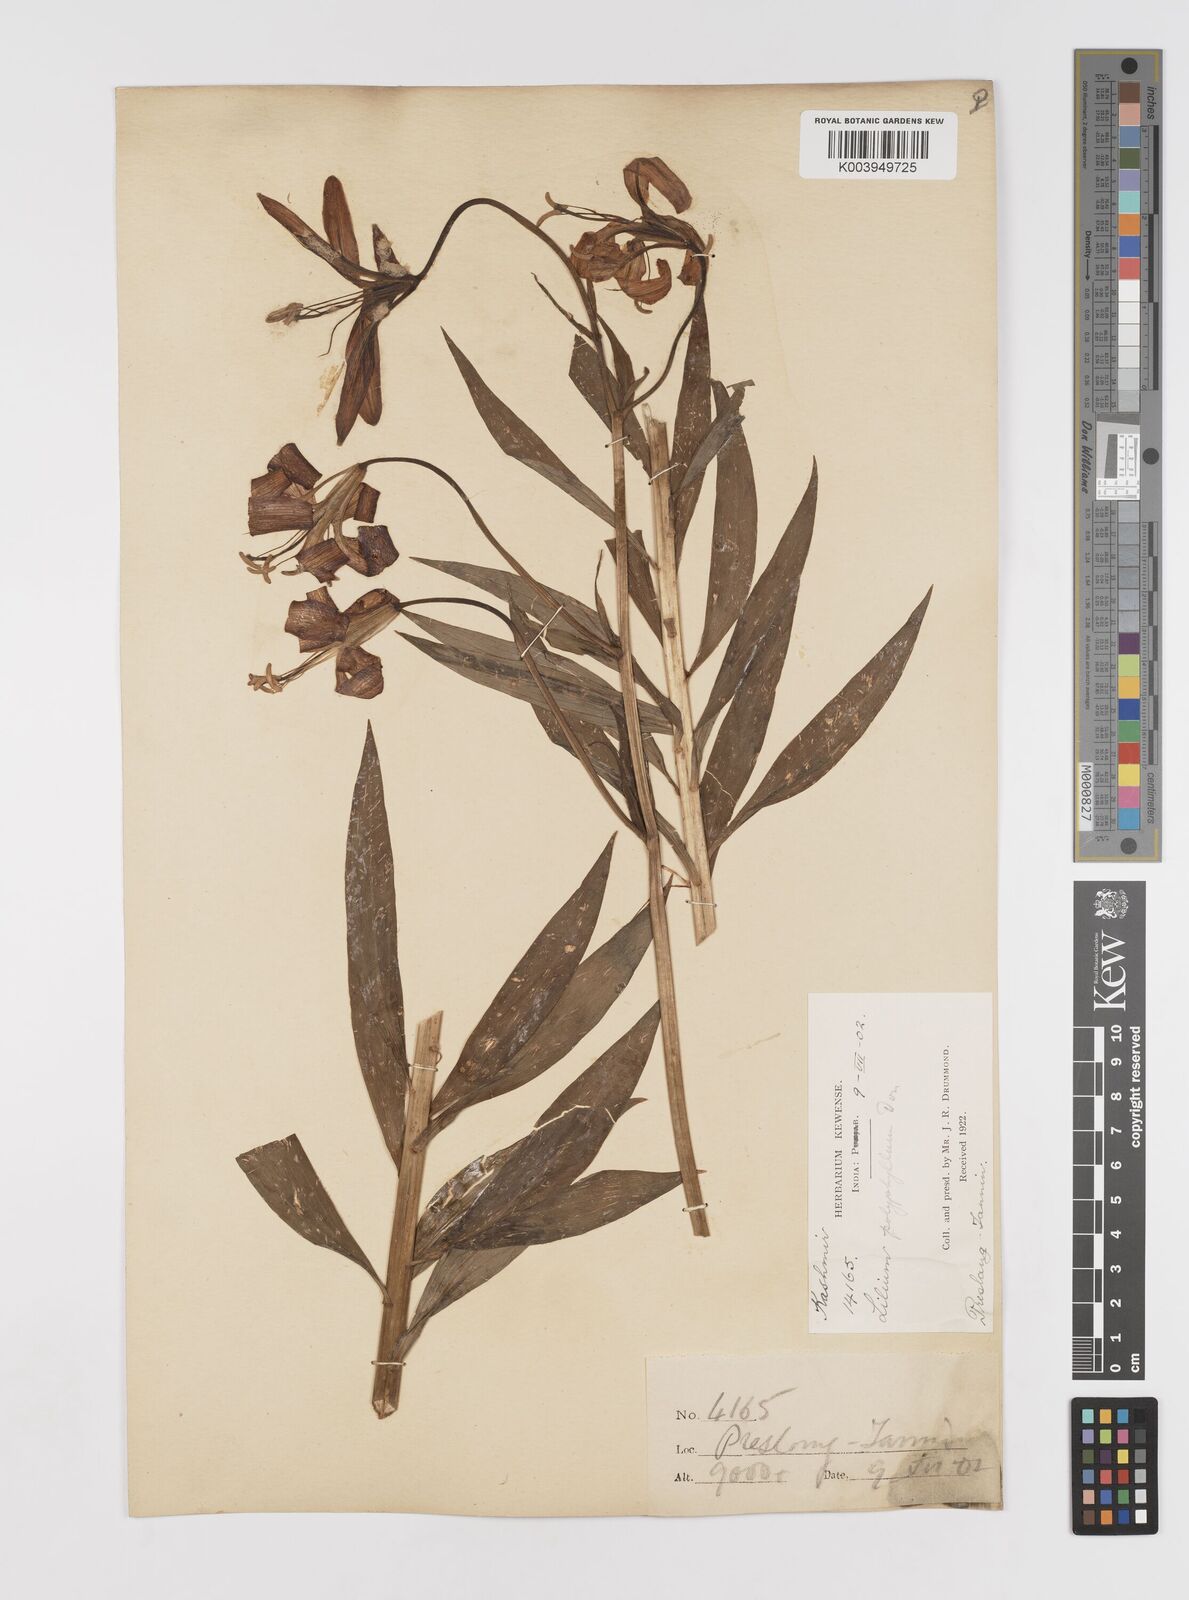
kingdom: Plantae
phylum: Tracheophyta
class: Liliopsida
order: Liliales
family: Liliaceae
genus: Lilium
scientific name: Lilium polyphyllum
